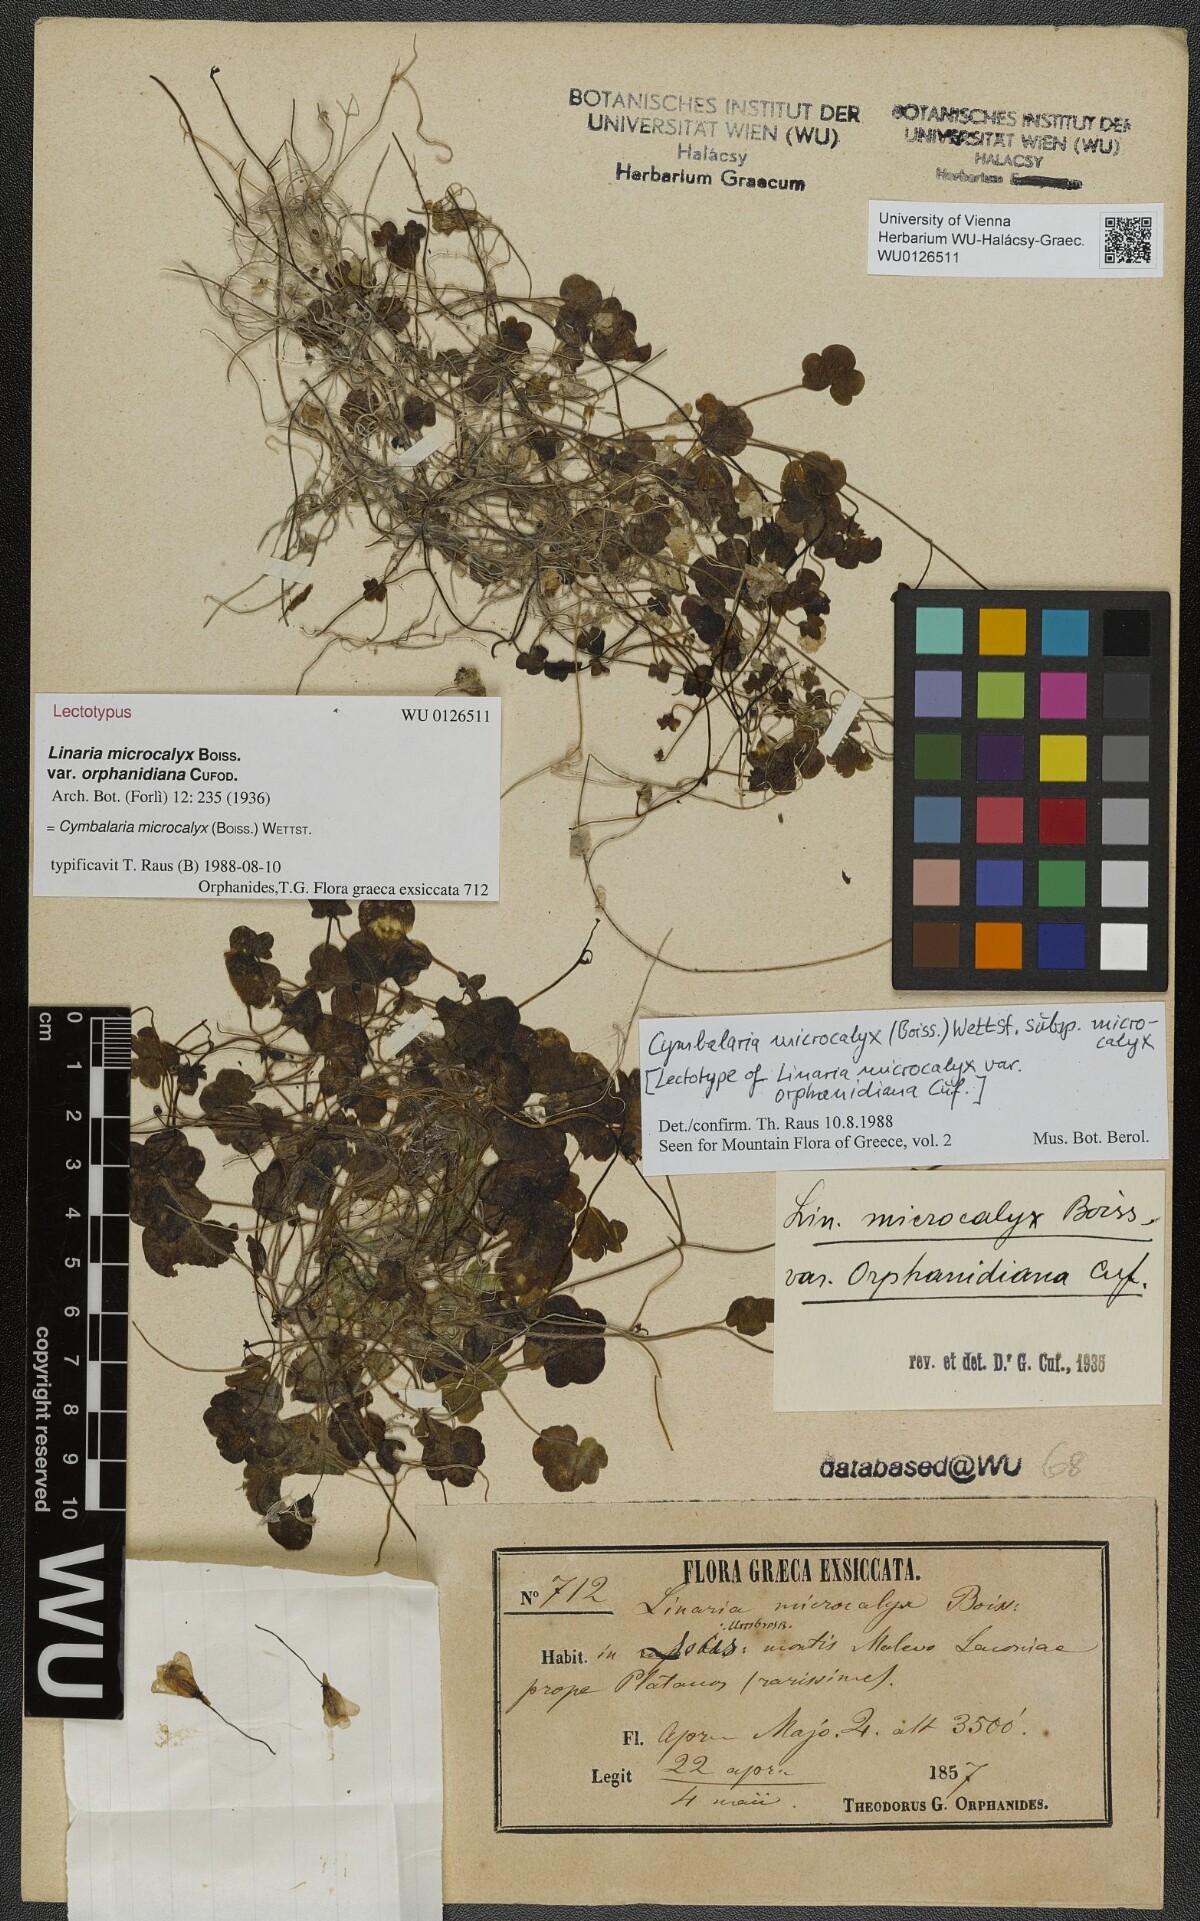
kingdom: Plantae
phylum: Tracheophyta
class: Magnoliopsida
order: Lamiales
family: Plantaginaceae
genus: Cymbalaria
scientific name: Cymbalaria microcalyx
